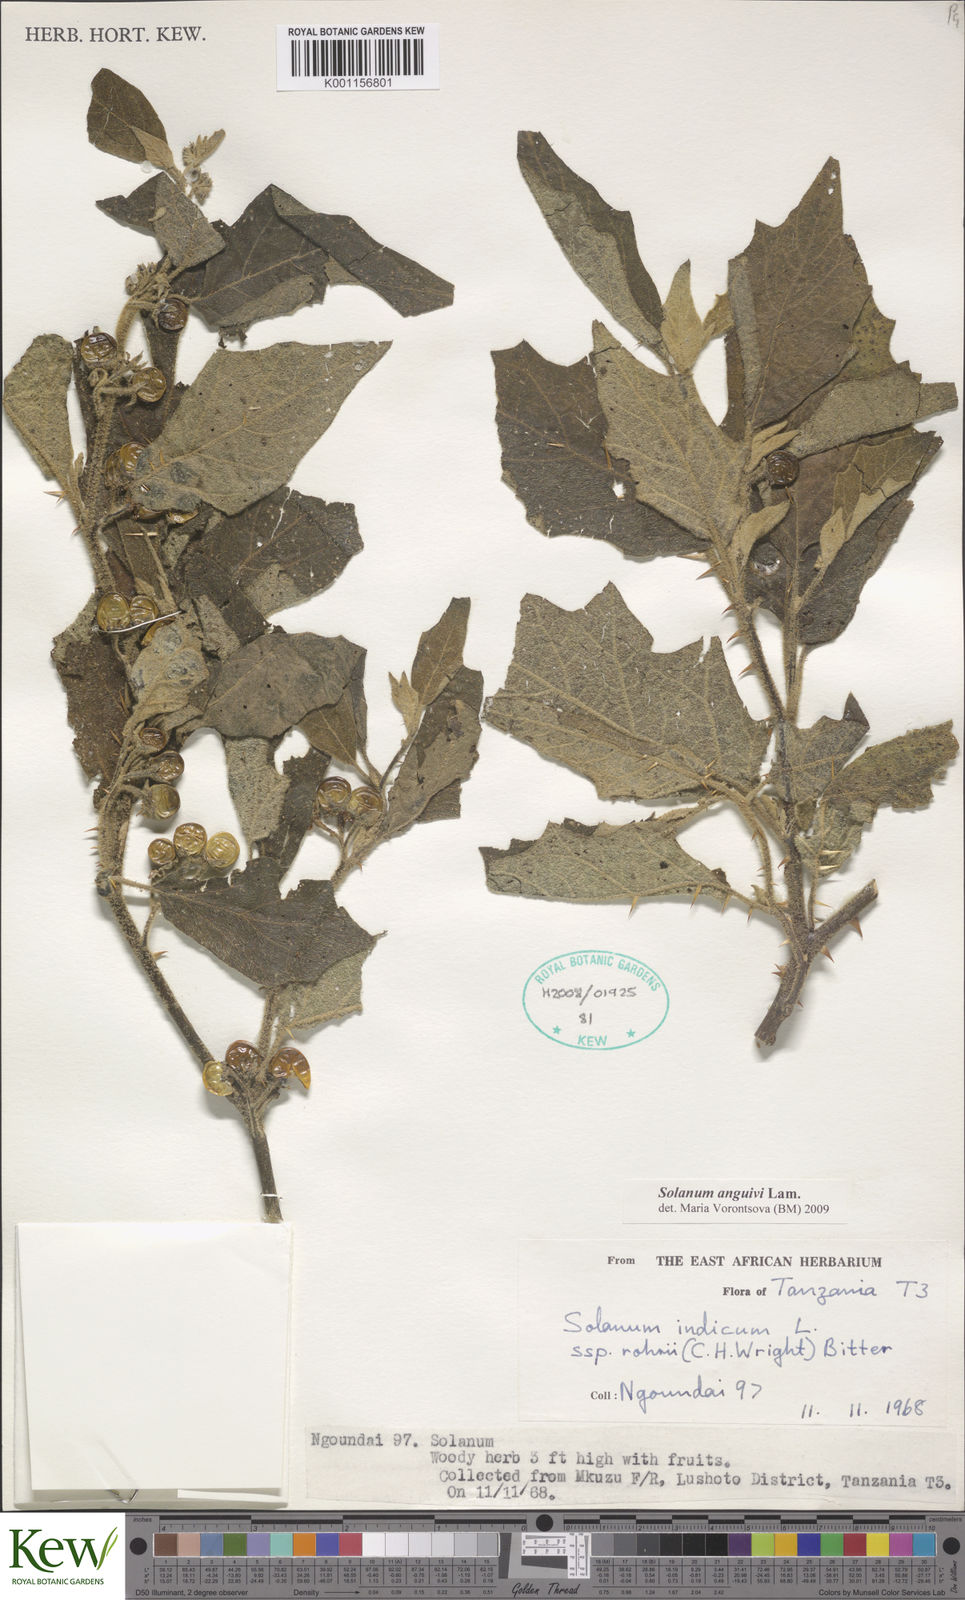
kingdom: Plantae
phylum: Tracheophyta
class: Magnoliopsida
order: Solanales
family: Solanaceae
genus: Solanum
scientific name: Solanum anguivi
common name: Forest bitterberry
